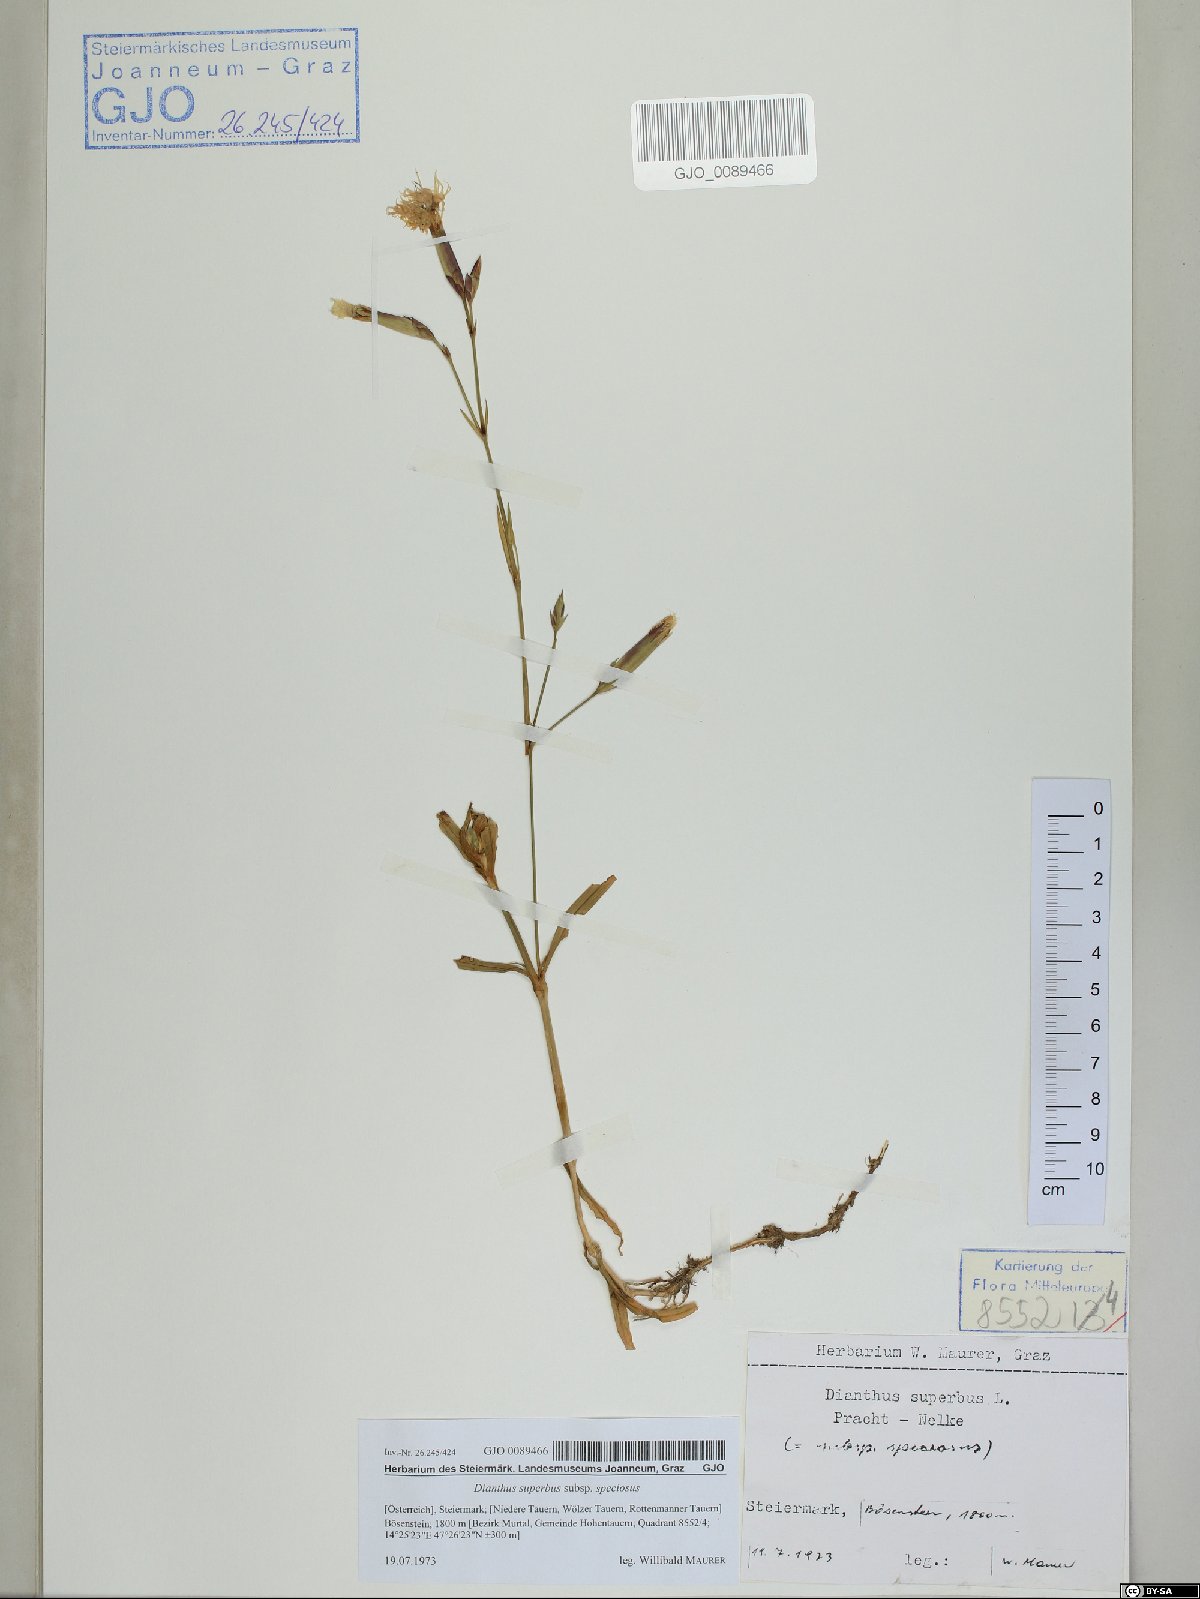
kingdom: Plantae
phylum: Tracheophyta
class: Magnoliopsida
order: Caryophyllales
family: Caryophyllaceae
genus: Dianthus
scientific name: Dianthus superbus
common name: Fringed pink
